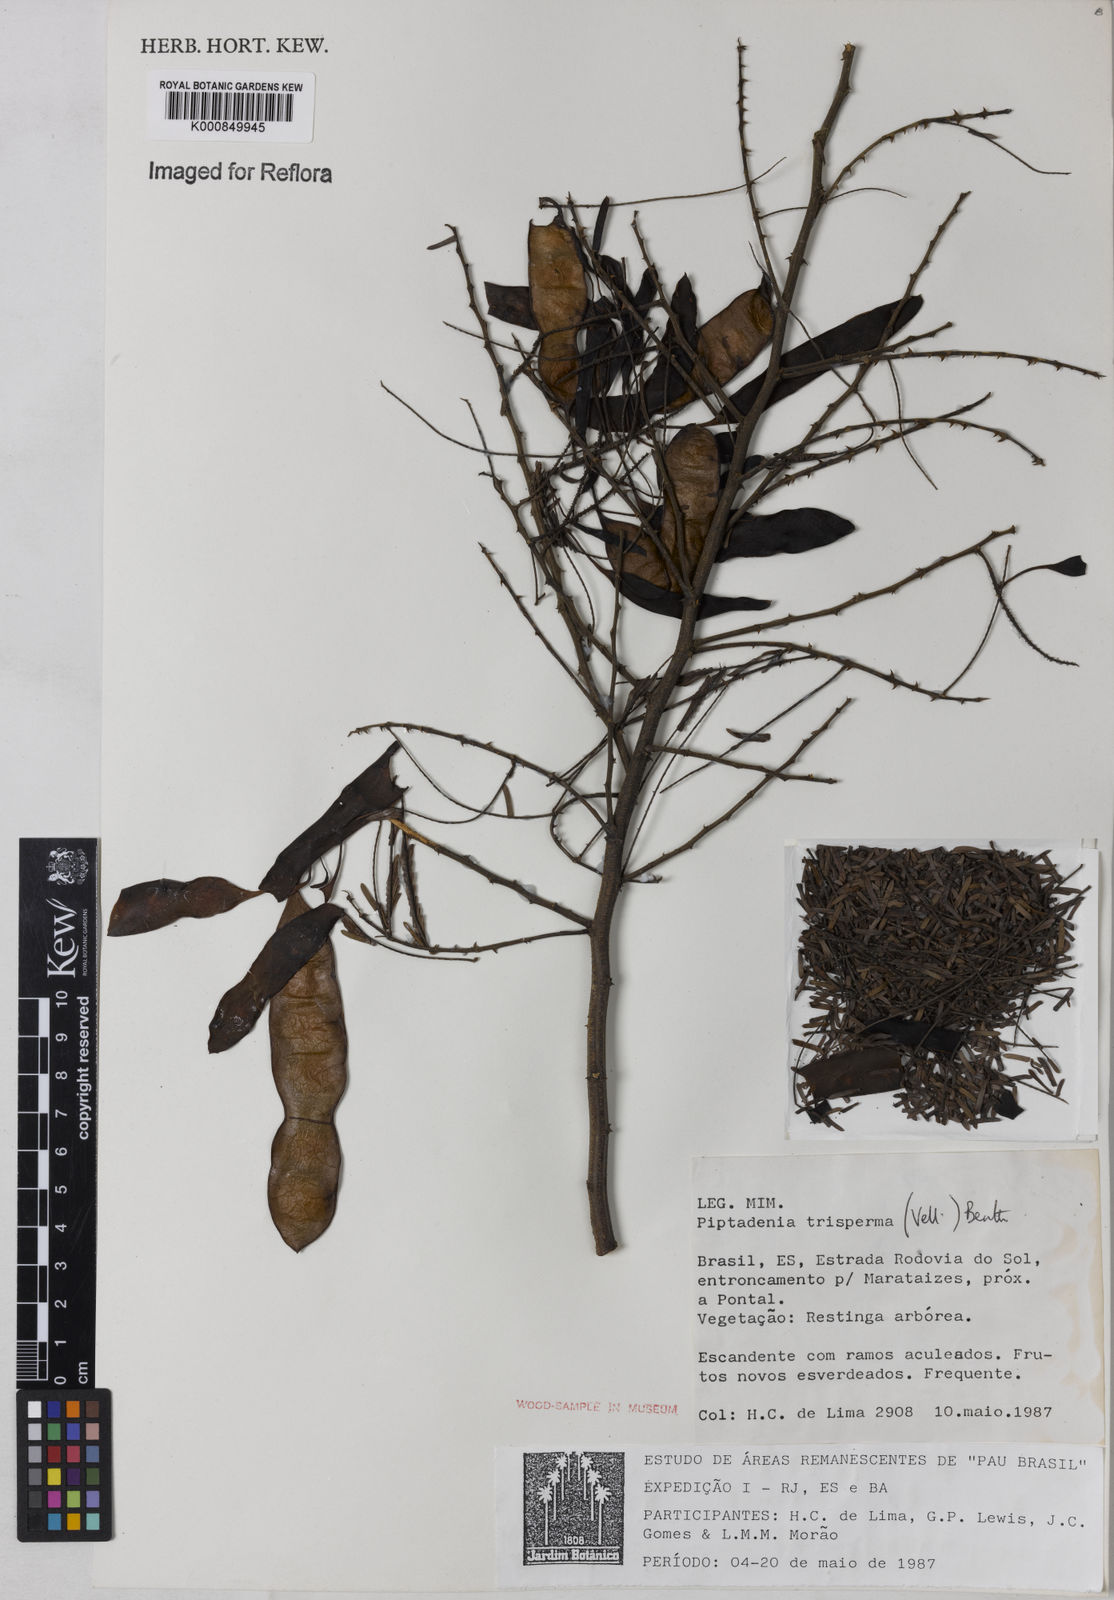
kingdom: Plantae
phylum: Tracheophyta
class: Magnoliopsida
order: Fabales
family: Fabaceae
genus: Piptadenia
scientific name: Piptadenia trisperma
